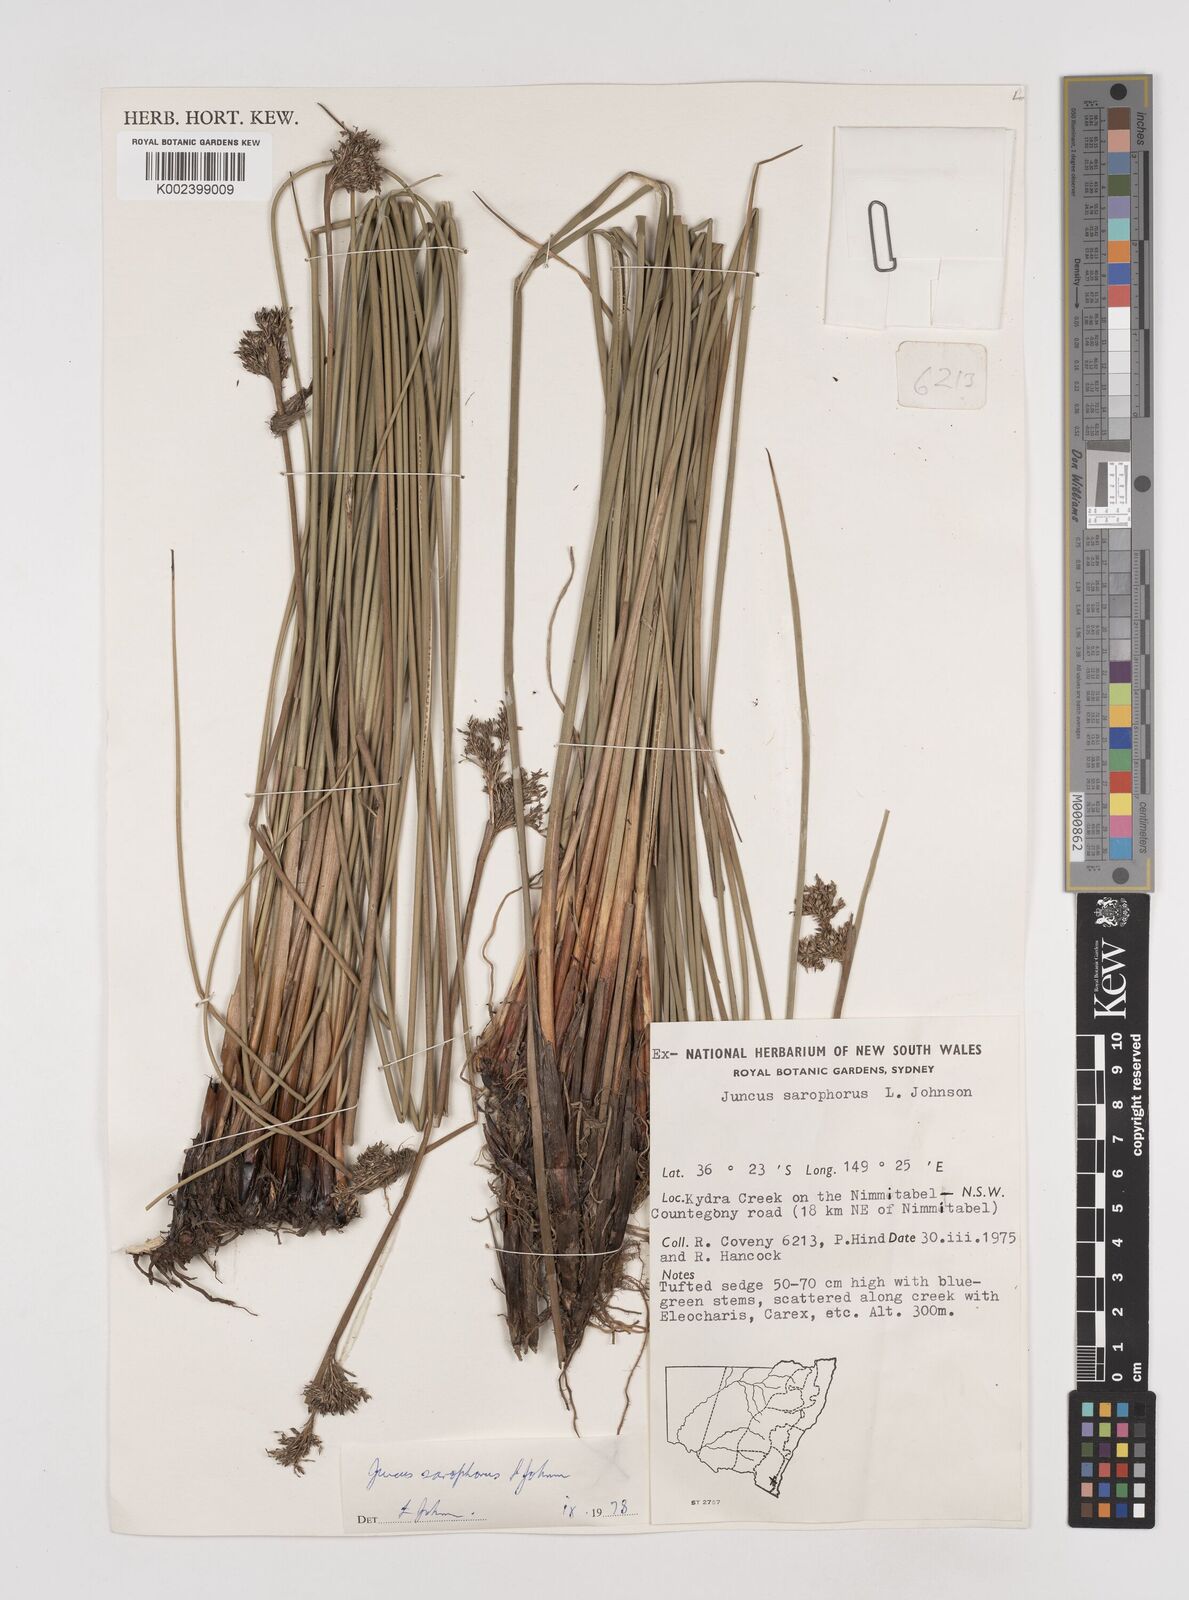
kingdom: Plantae
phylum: Tracheophyta
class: Liliopsida
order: Poales
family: Juncaceae
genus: Juncus
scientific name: Juncus sarophorus
